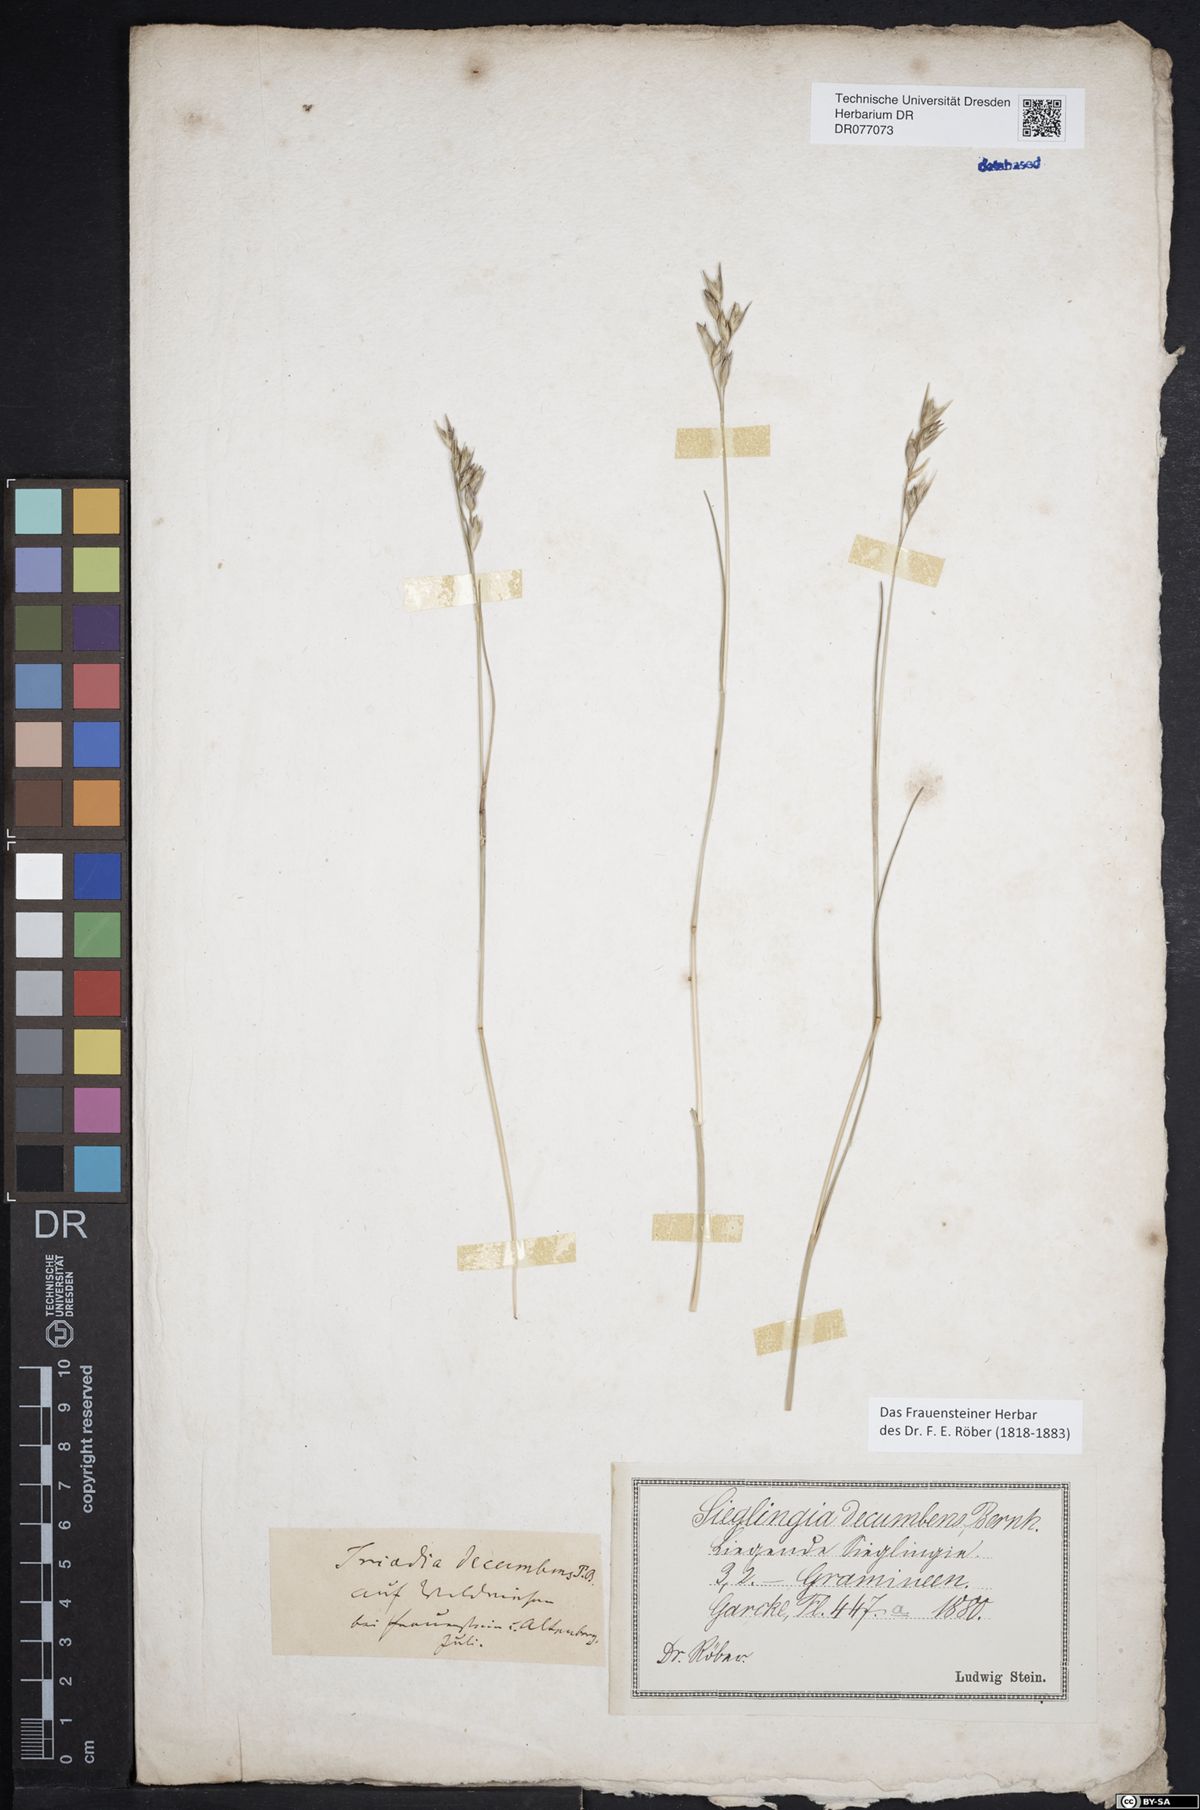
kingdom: Plantae
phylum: Tracheophyta
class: Liliopsida
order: Poales
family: Poaceae
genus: Danthonia
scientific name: Danthonia decumbens
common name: Common heathgrass
